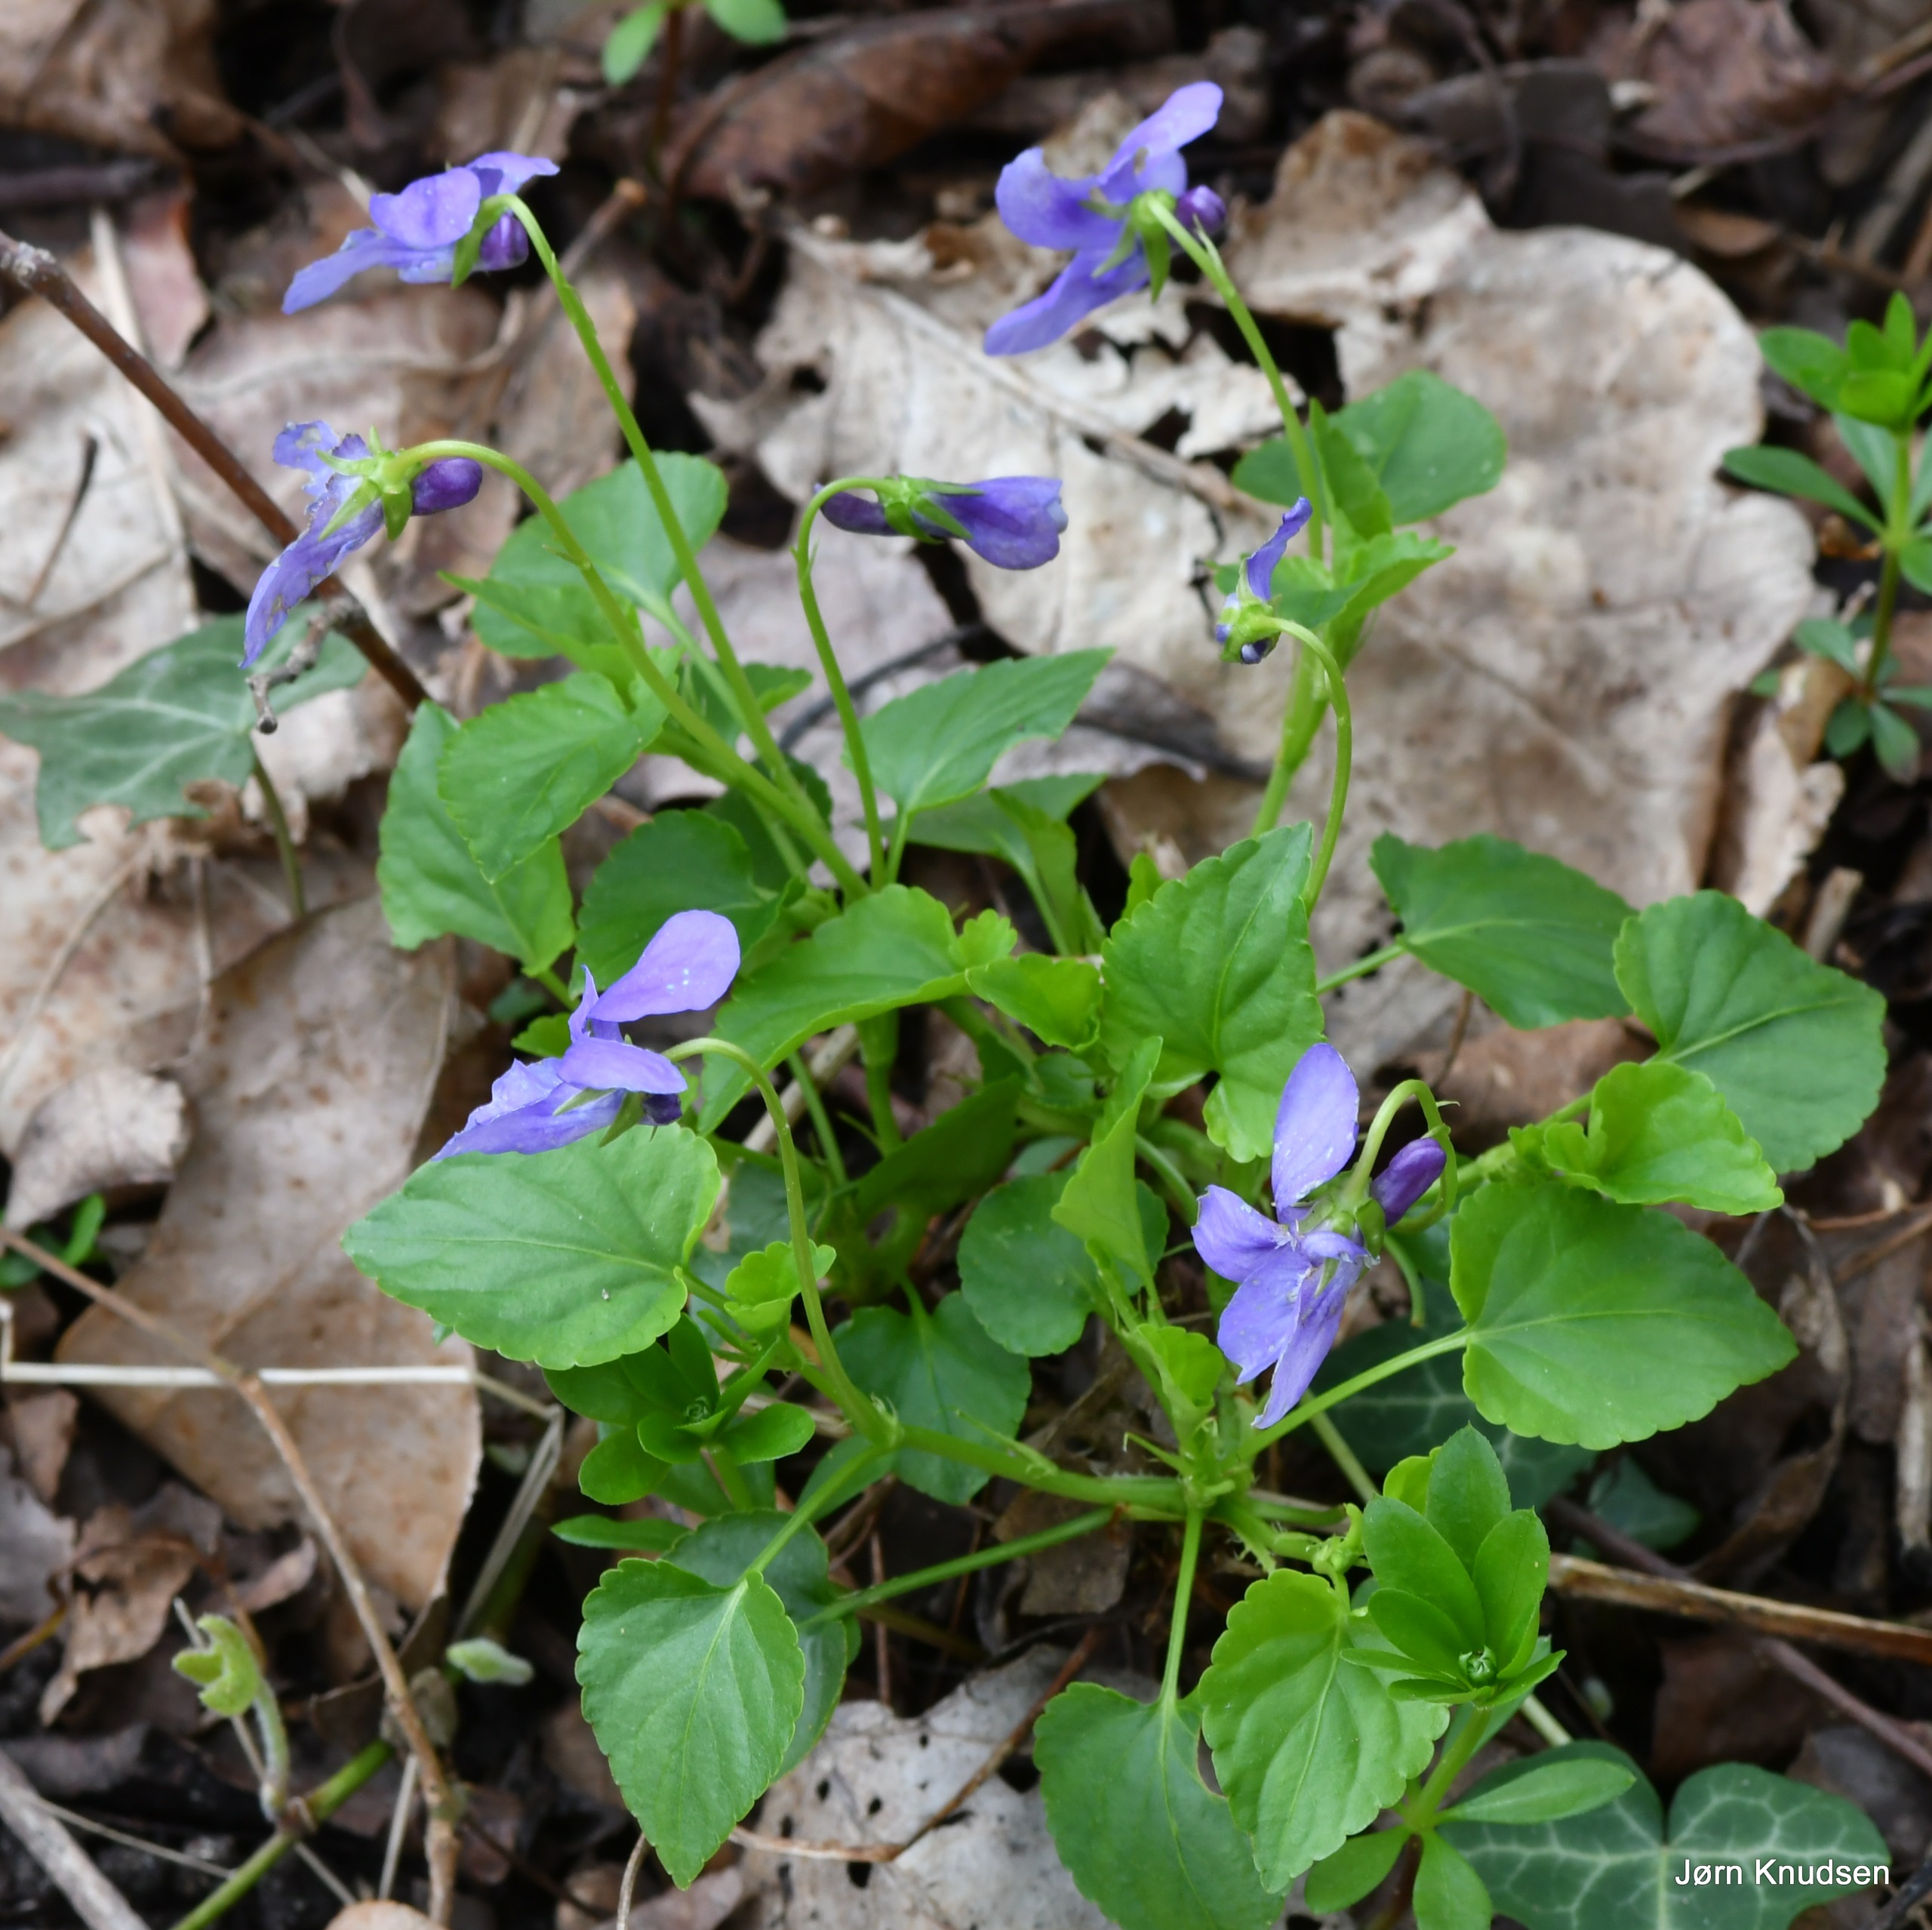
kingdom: Plantae
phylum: Tracheophyta
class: Magnoliopsida
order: Malpighiales
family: Violaceae
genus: Viola
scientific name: Viola reichenbachiana
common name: Skov-viol
